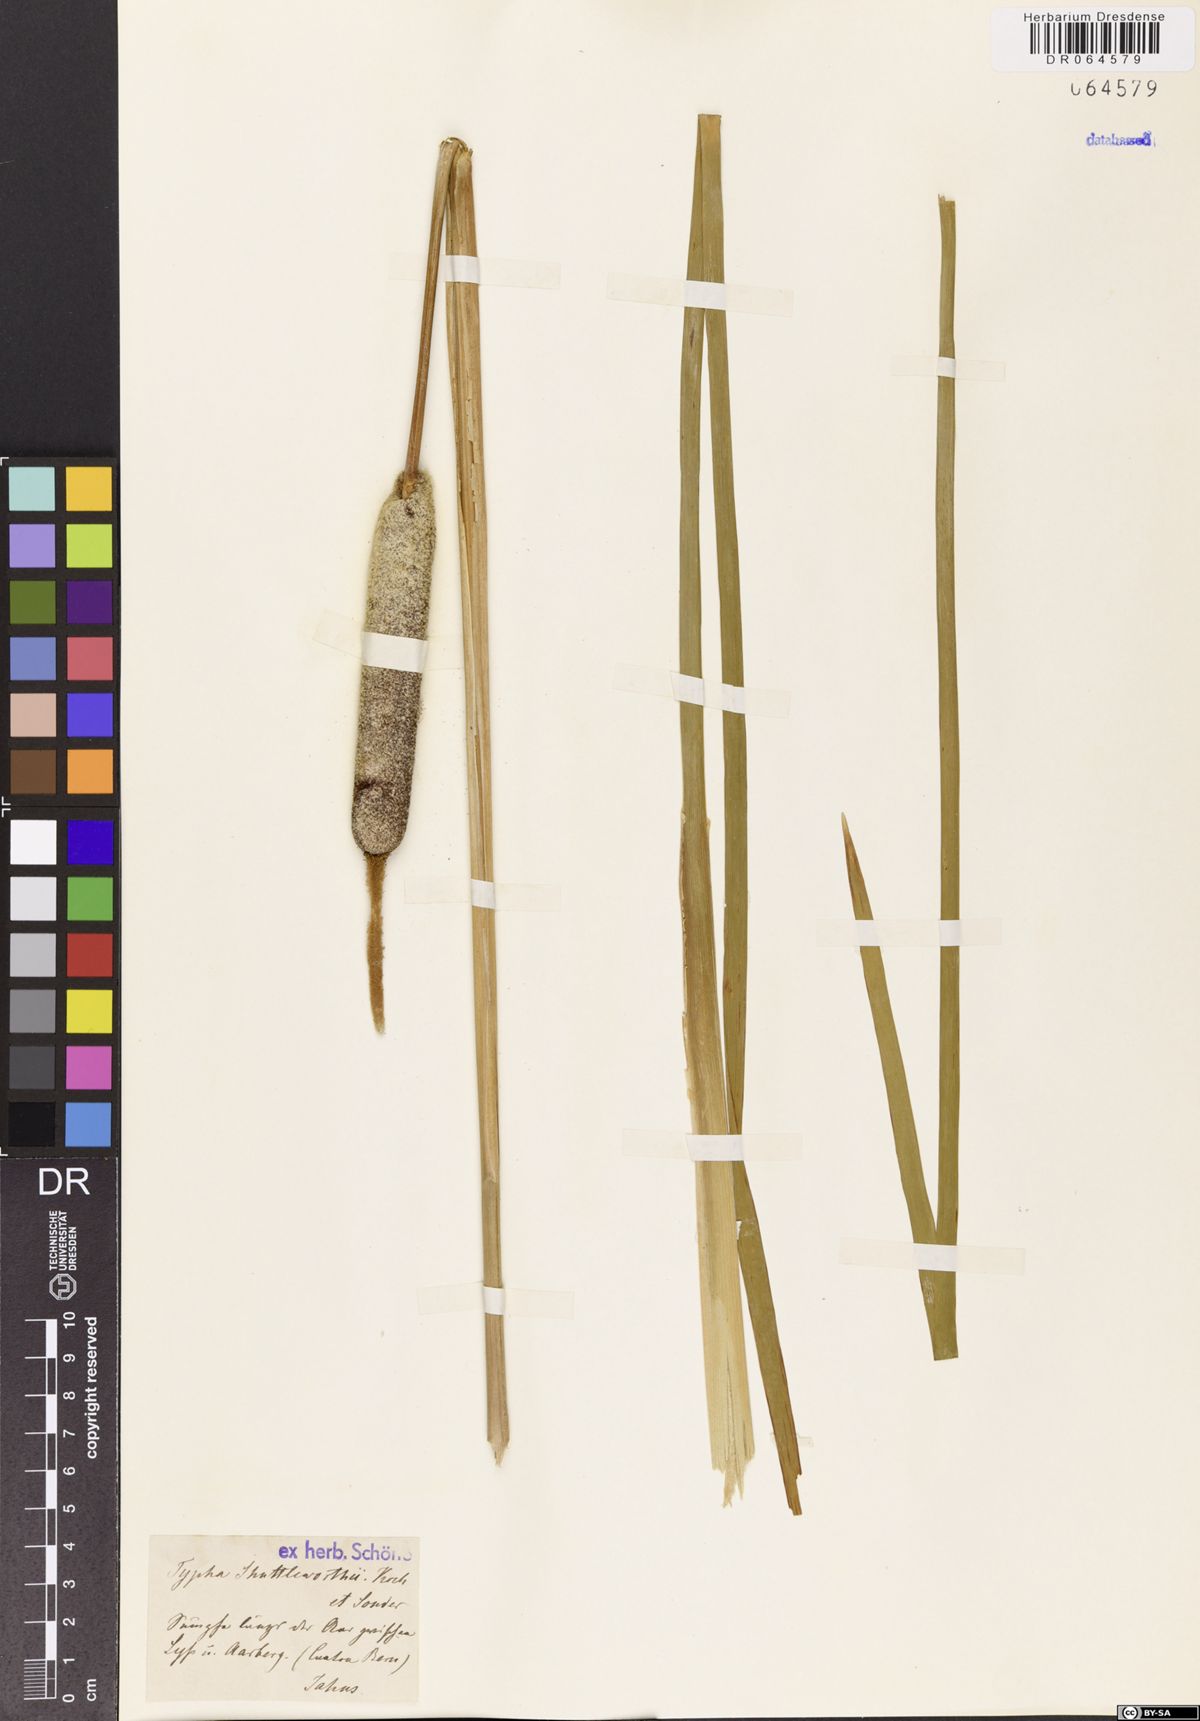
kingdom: Plantae
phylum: Tracheophyta
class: Liliopsida
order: Poales
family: Typhaceae
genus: Typha
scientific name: Typha shuttleworthii
